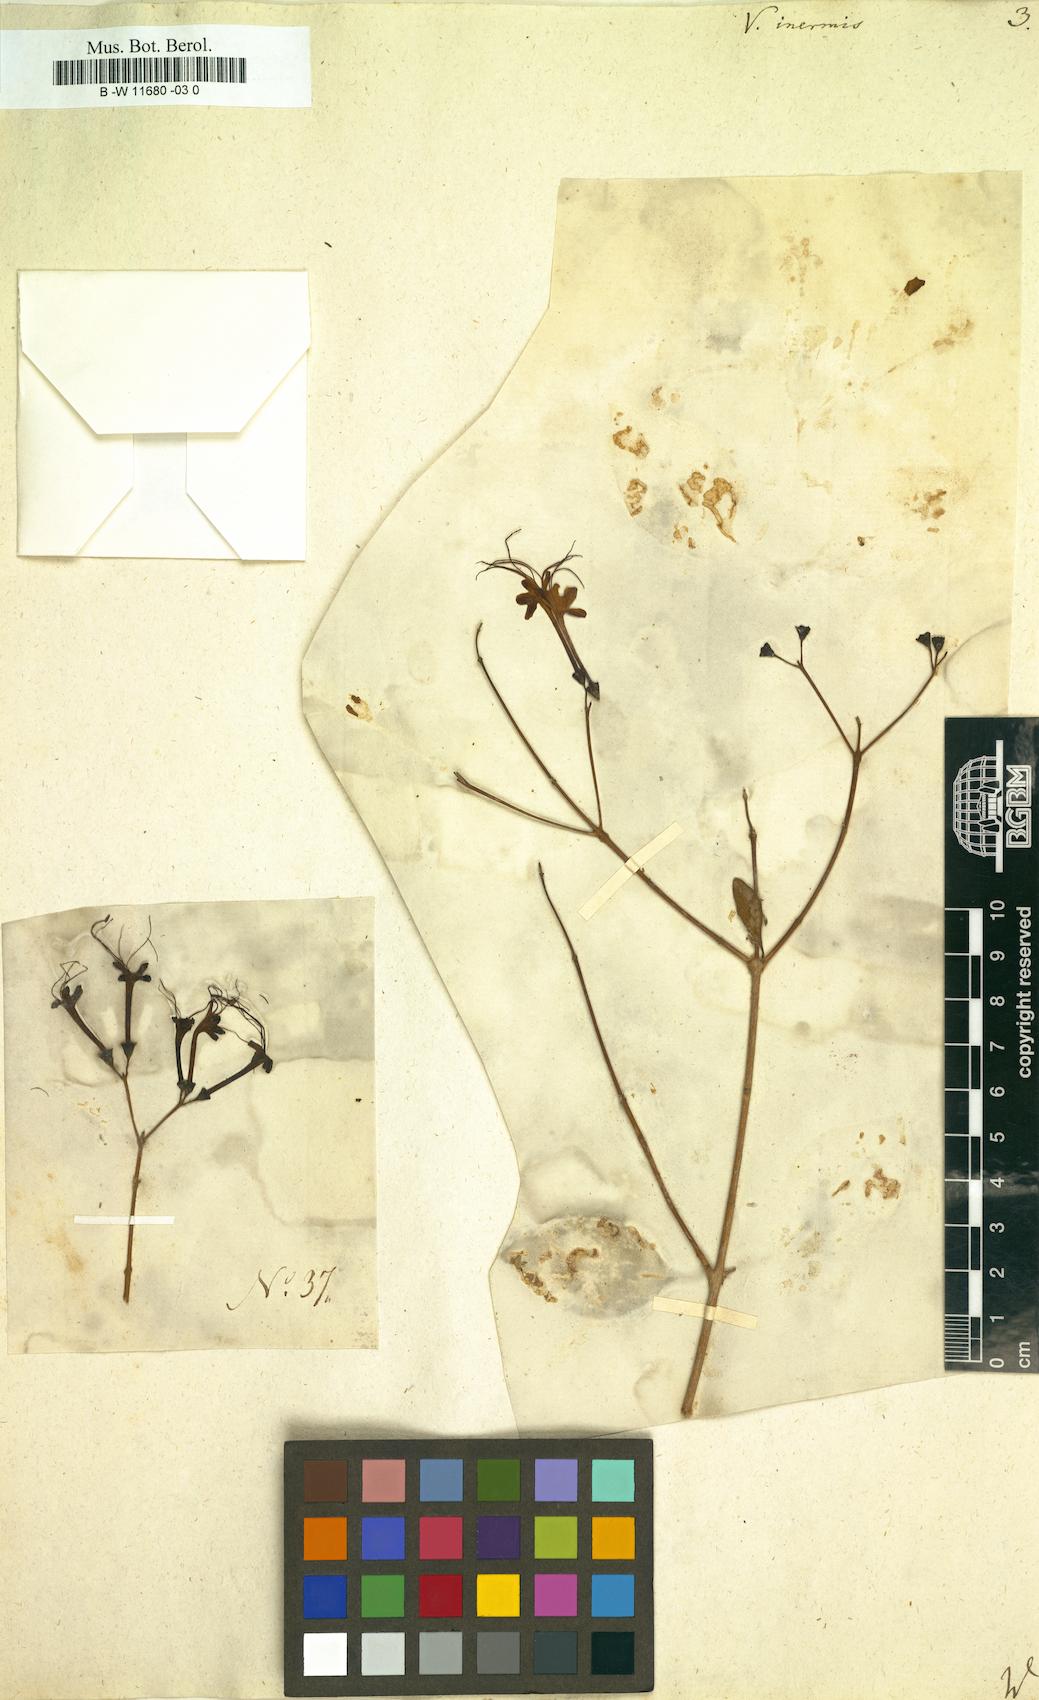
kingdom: Plantae
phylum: Tracheophyta
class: Magnoliopsida
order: Lamiales
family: Lamiaceae
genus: Volkameria
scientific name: Volkameria inermis
